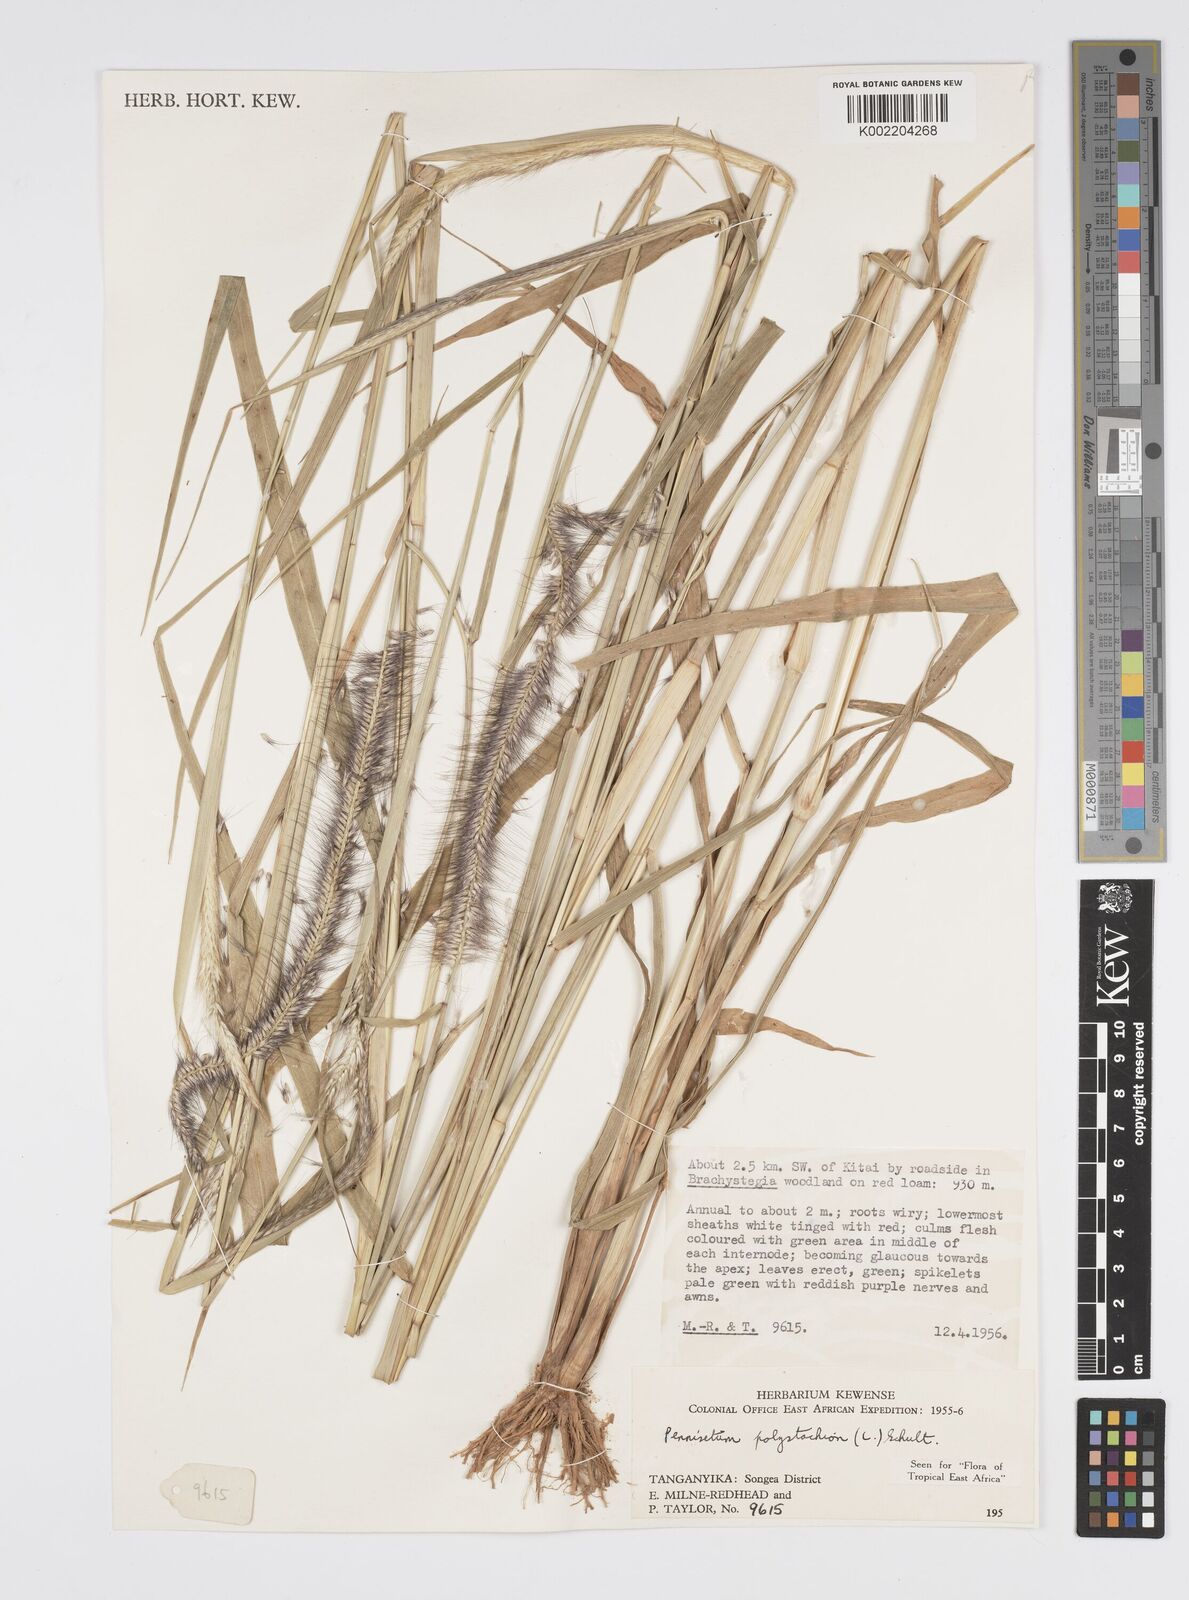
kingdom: Plantae
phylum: Tracheophyta
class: Liliopsida
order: Poales
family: Poaceae
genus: Setaria
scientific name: Setaria parviflora
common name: Knotroot bristle-grass
